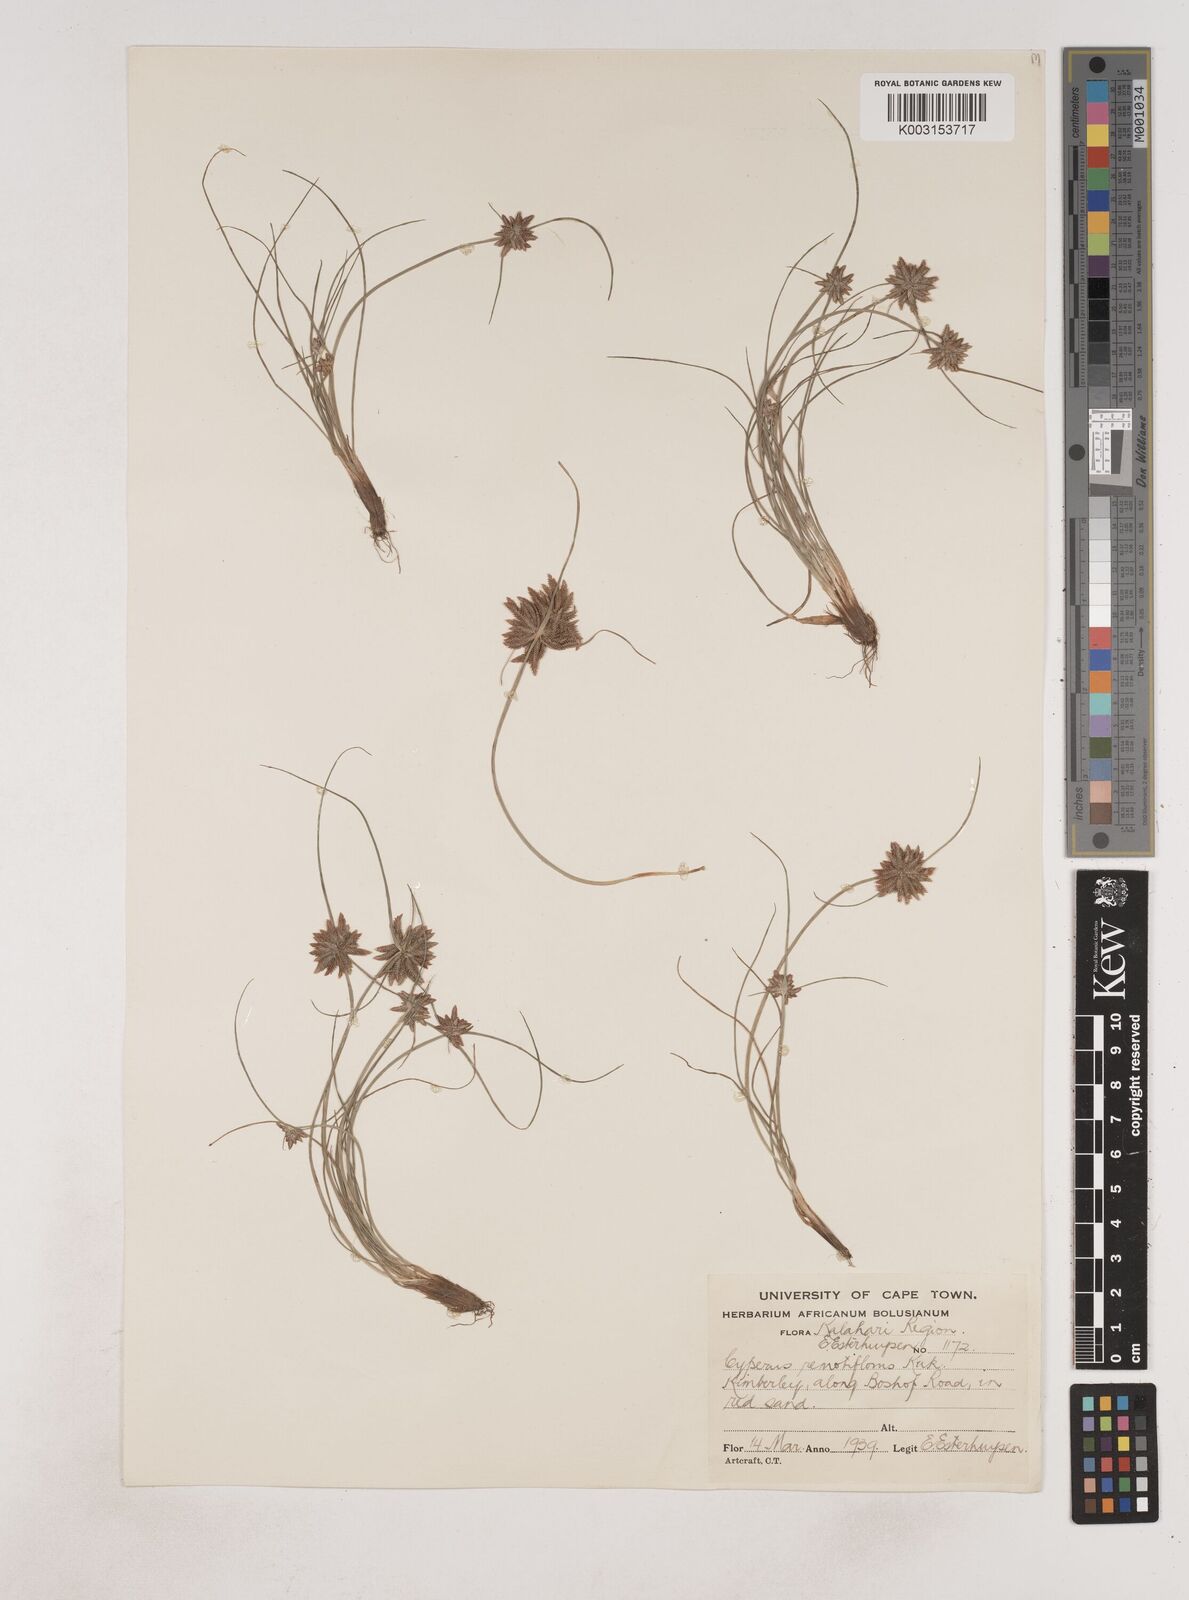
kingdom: Plantae
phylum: Tracheophyta
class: Liliopsida
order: Poales
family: Cyperaceae
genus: Cyperus
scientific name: Cyperus remotiflorus
